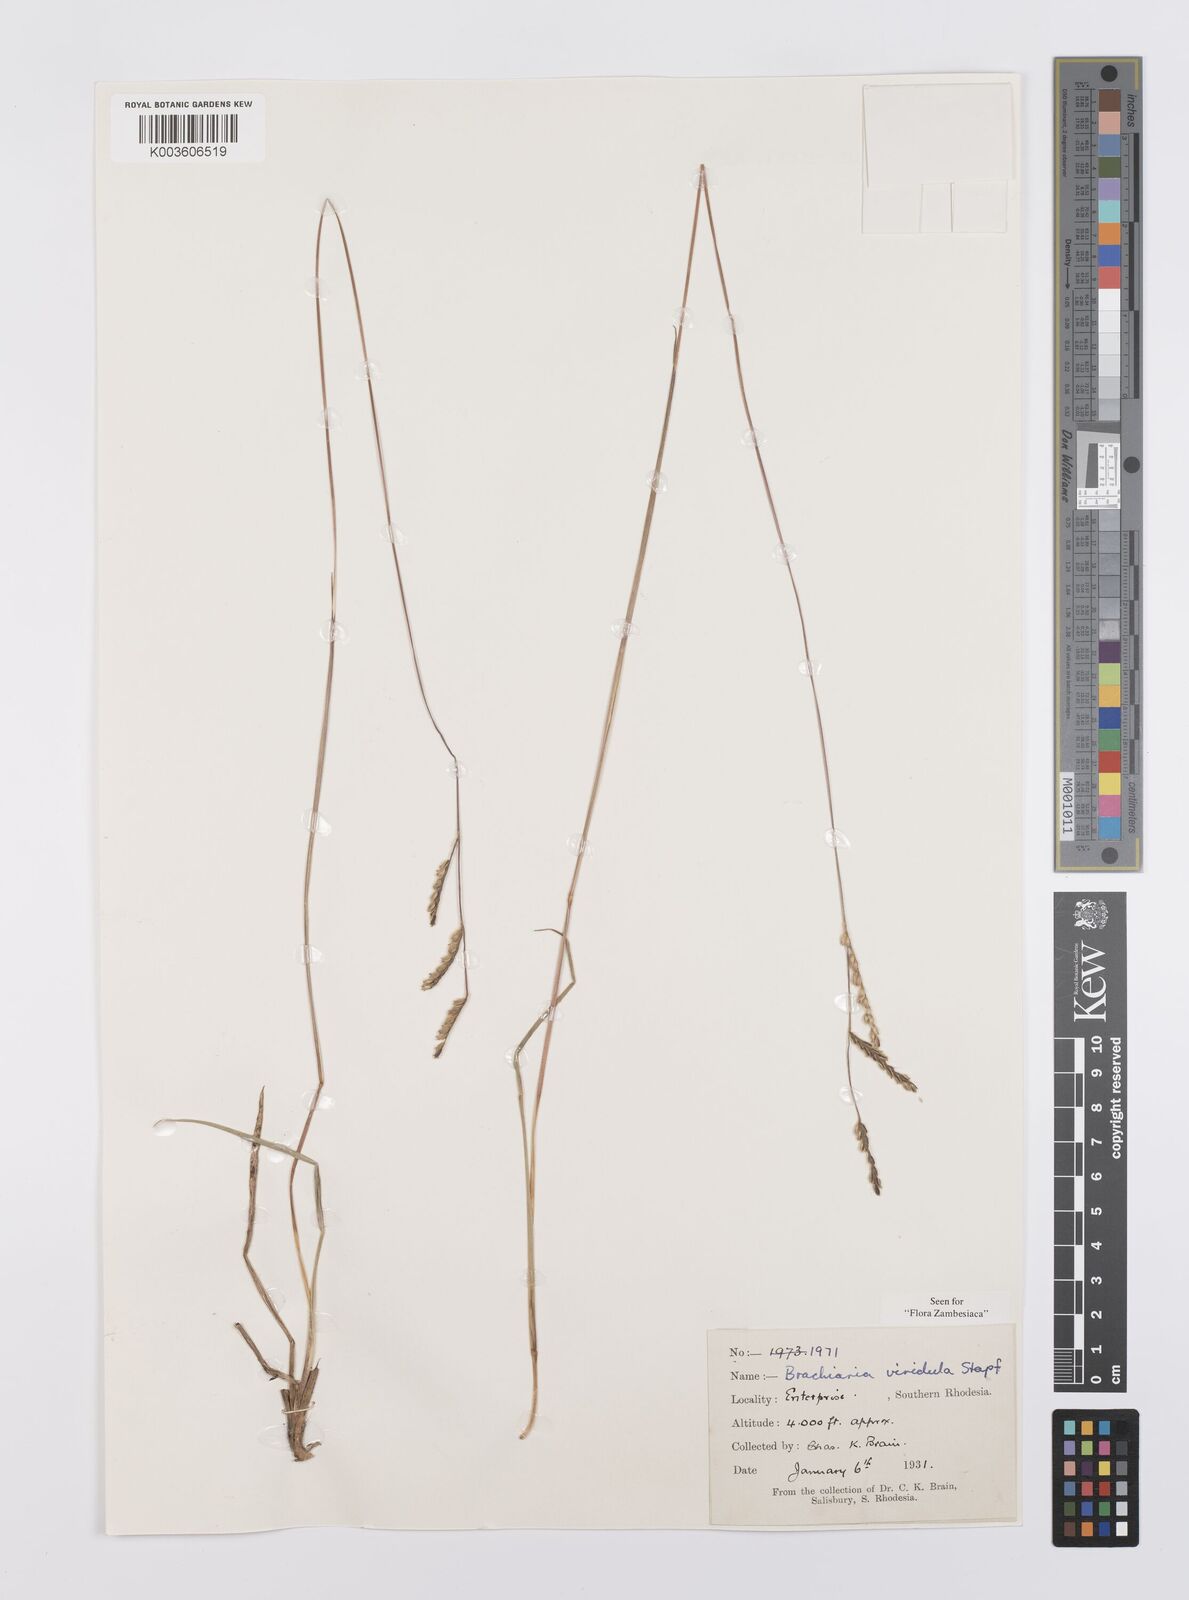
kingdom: Plantae
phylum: Tracheophyta
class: Liliopsida
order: Poales
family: Poaceae
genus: Urochloa
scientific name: Urochloa bovonei
